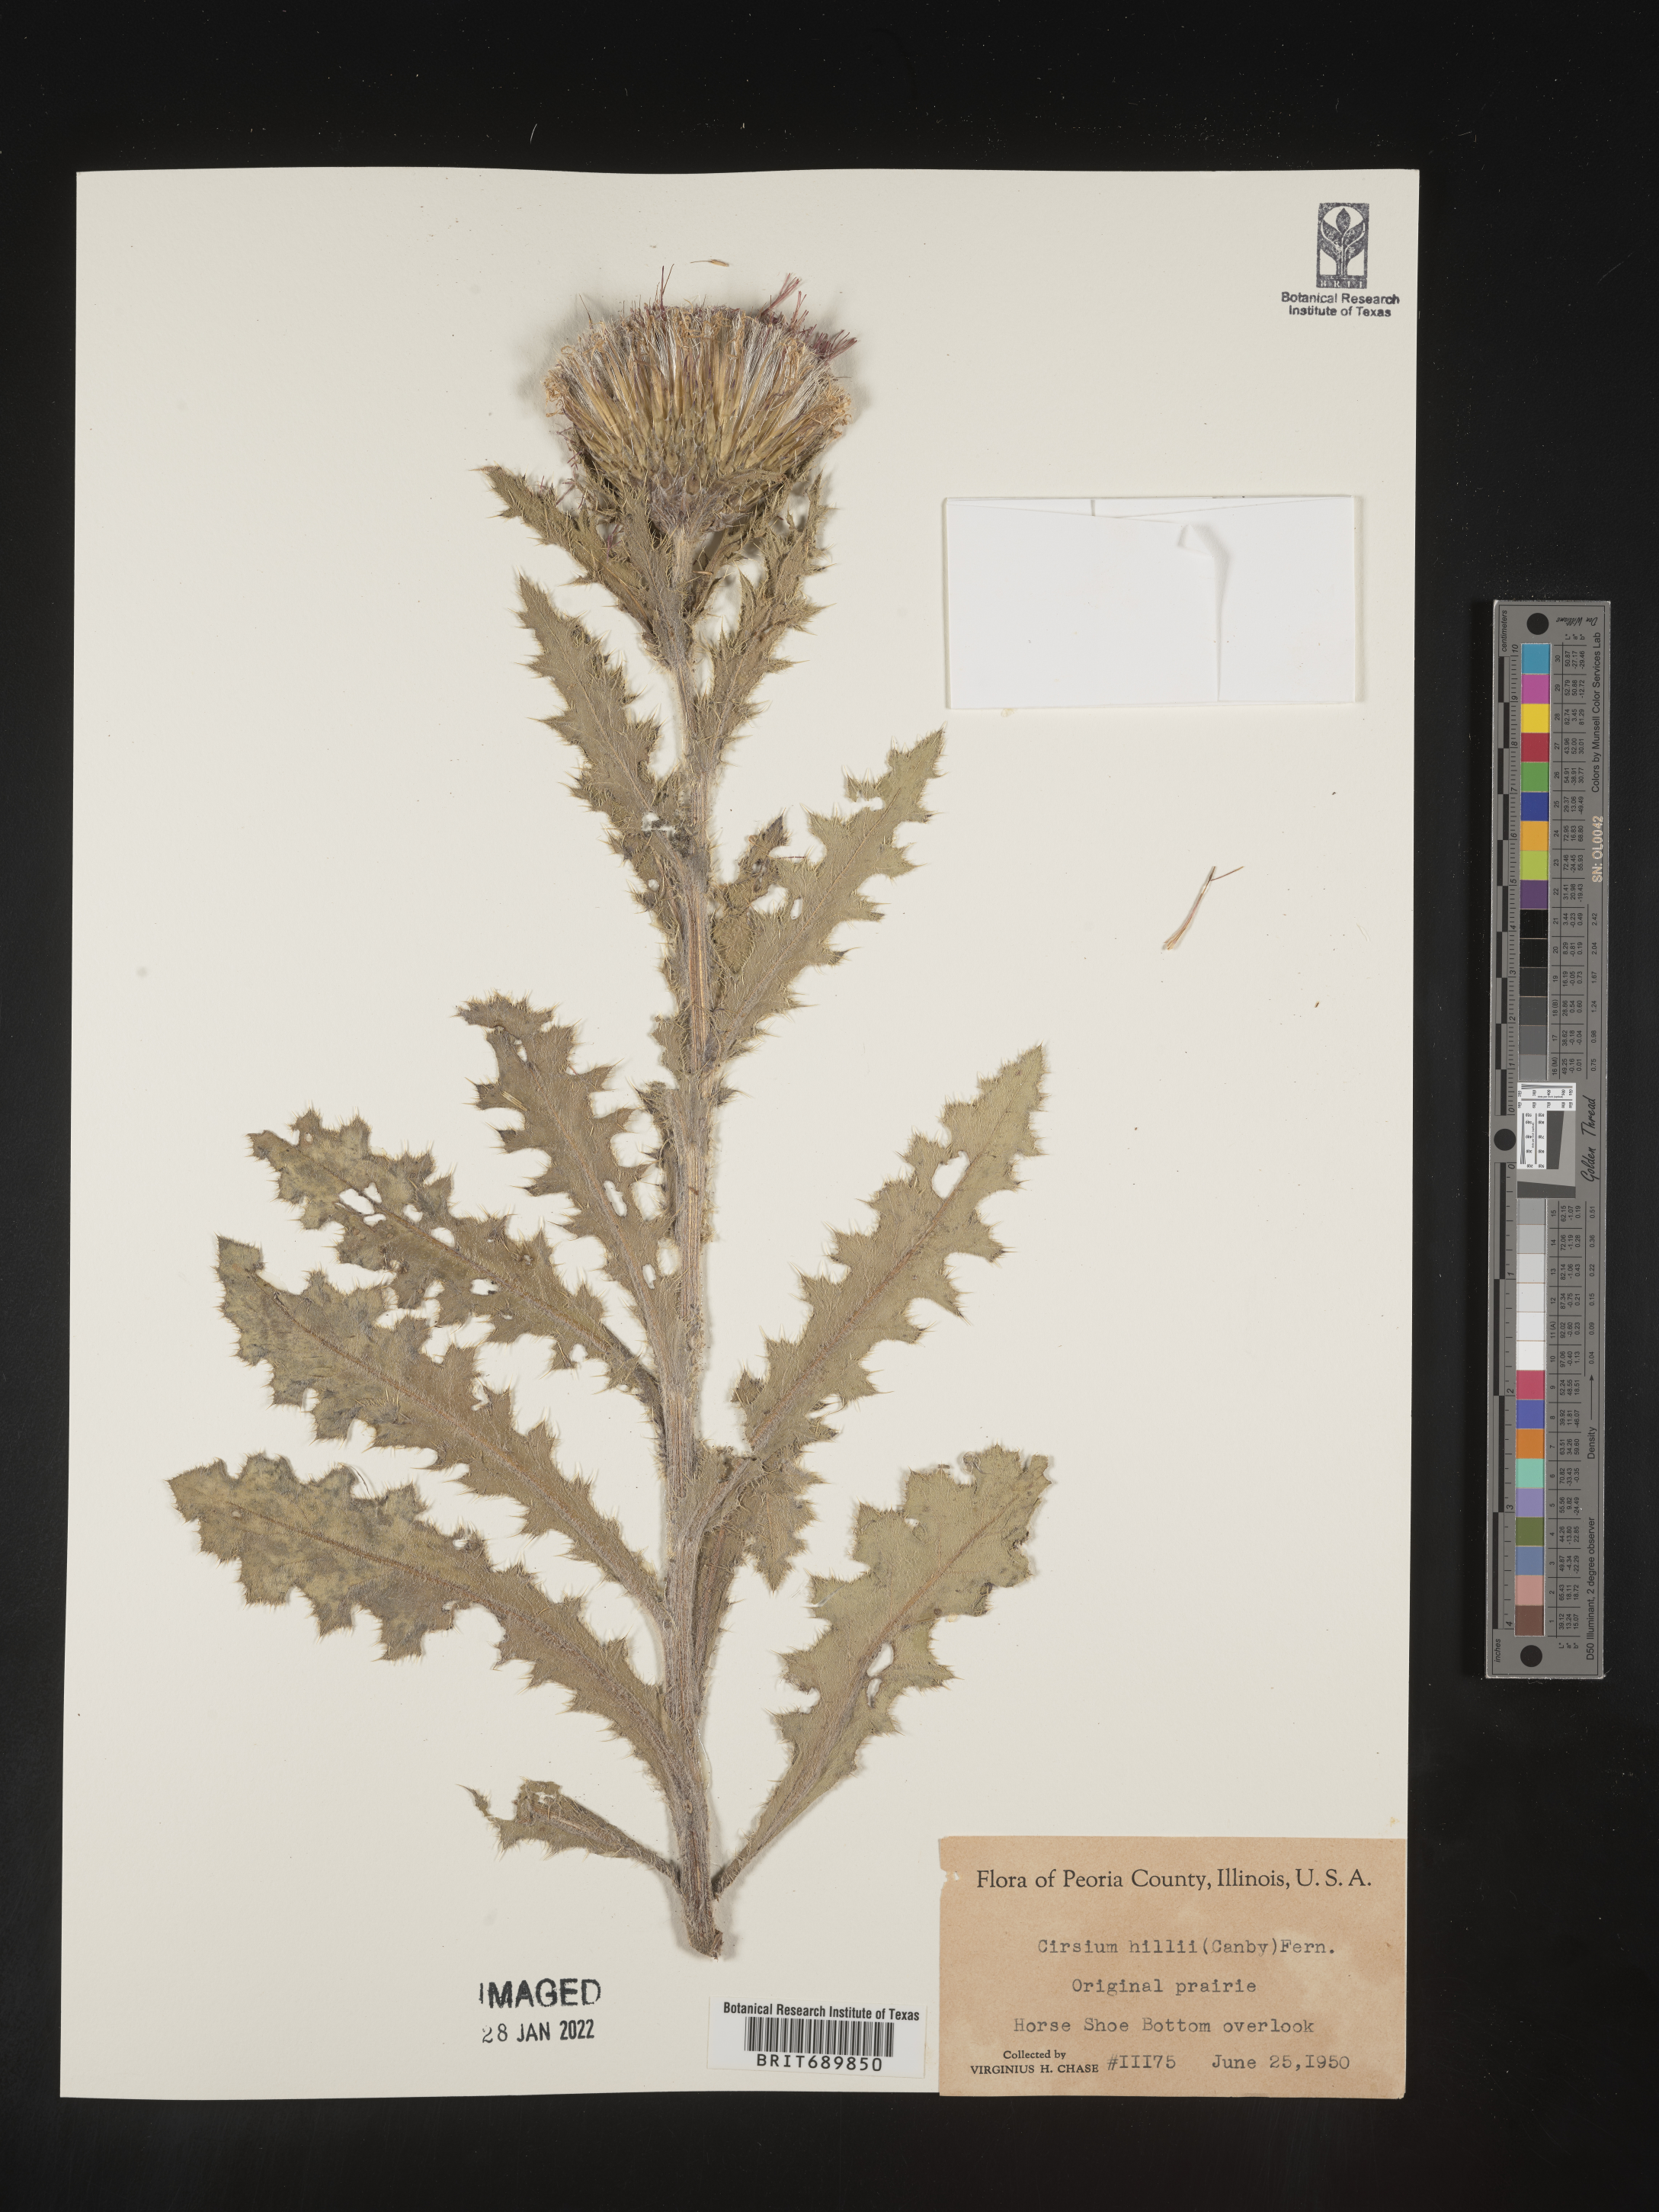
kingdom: Plantae
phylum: Tracheophyta
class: Magnoliopsida
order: Asterales
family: Asteraceae
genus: Cirsium
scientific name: Cirsium pumilum
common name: Pasture thistle
